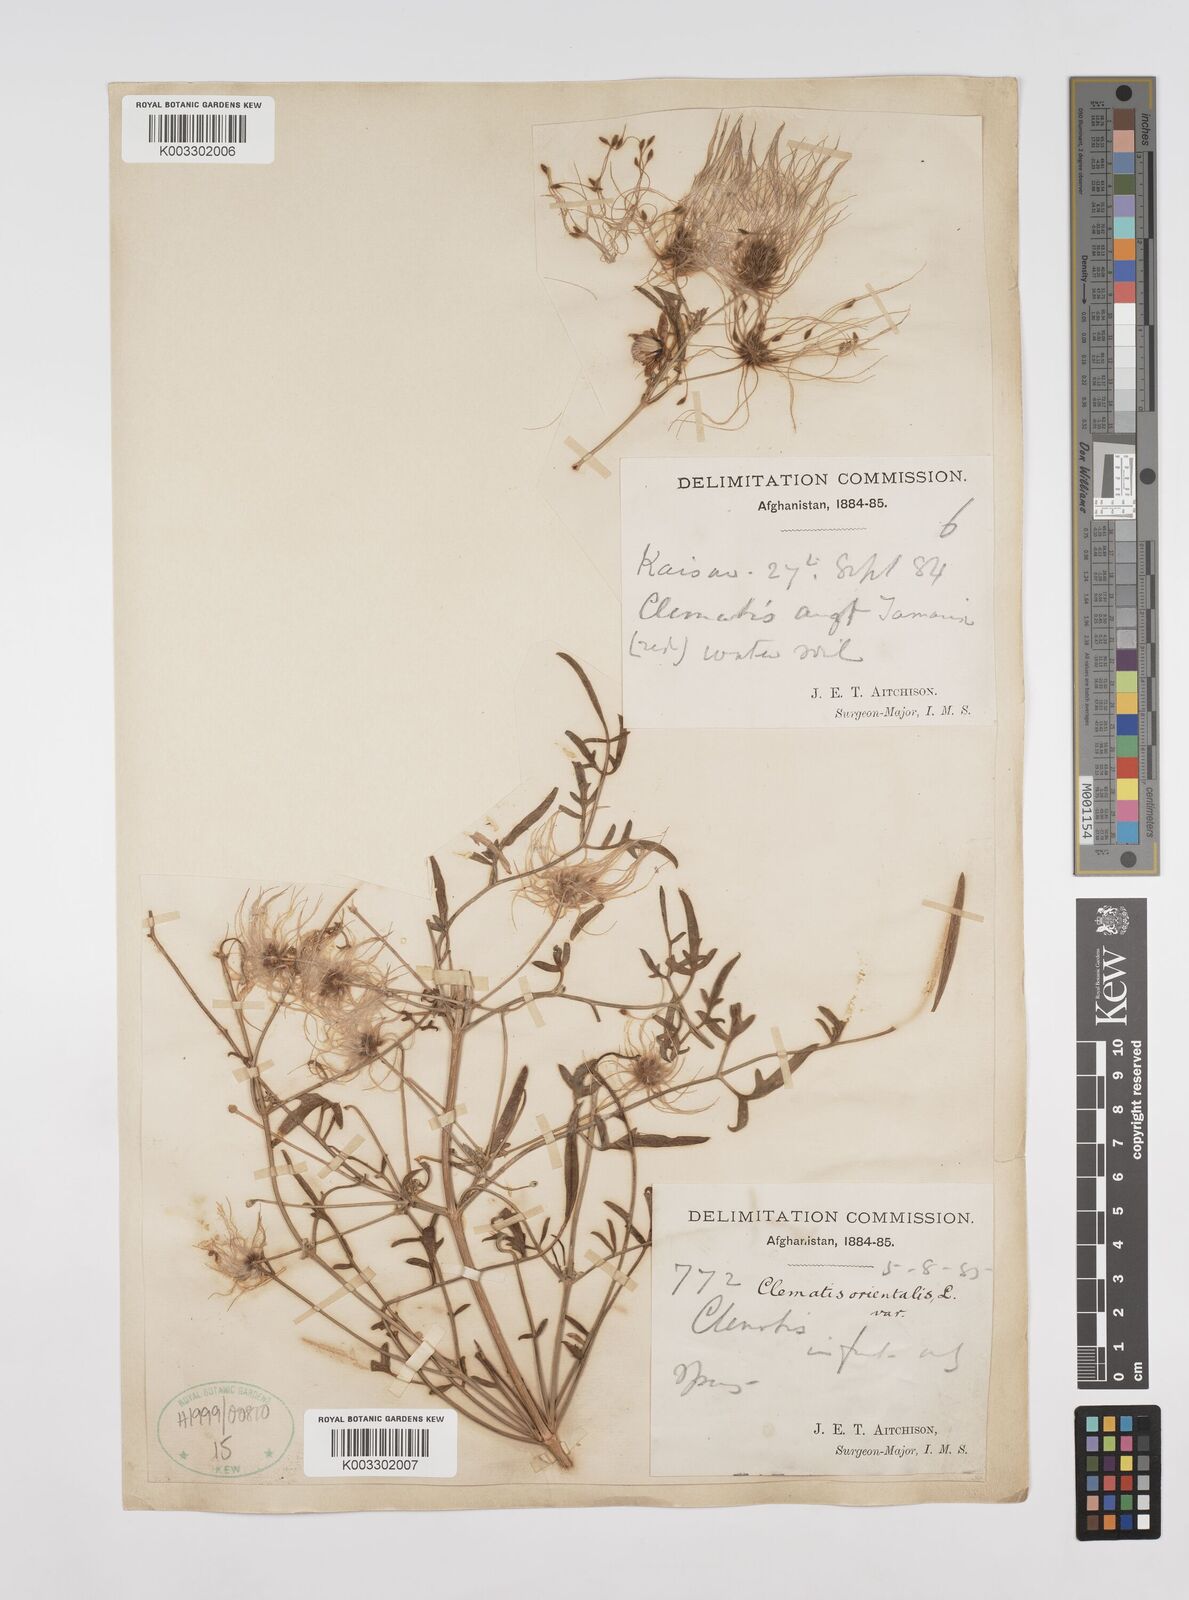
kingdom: Plantae
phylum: Tracheophyta
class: Magnoliopsida
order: Ranunculales
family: Ranunculaceae
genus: Clematis
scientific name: Clematis orientalis
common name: Oriental virgin's-bower
